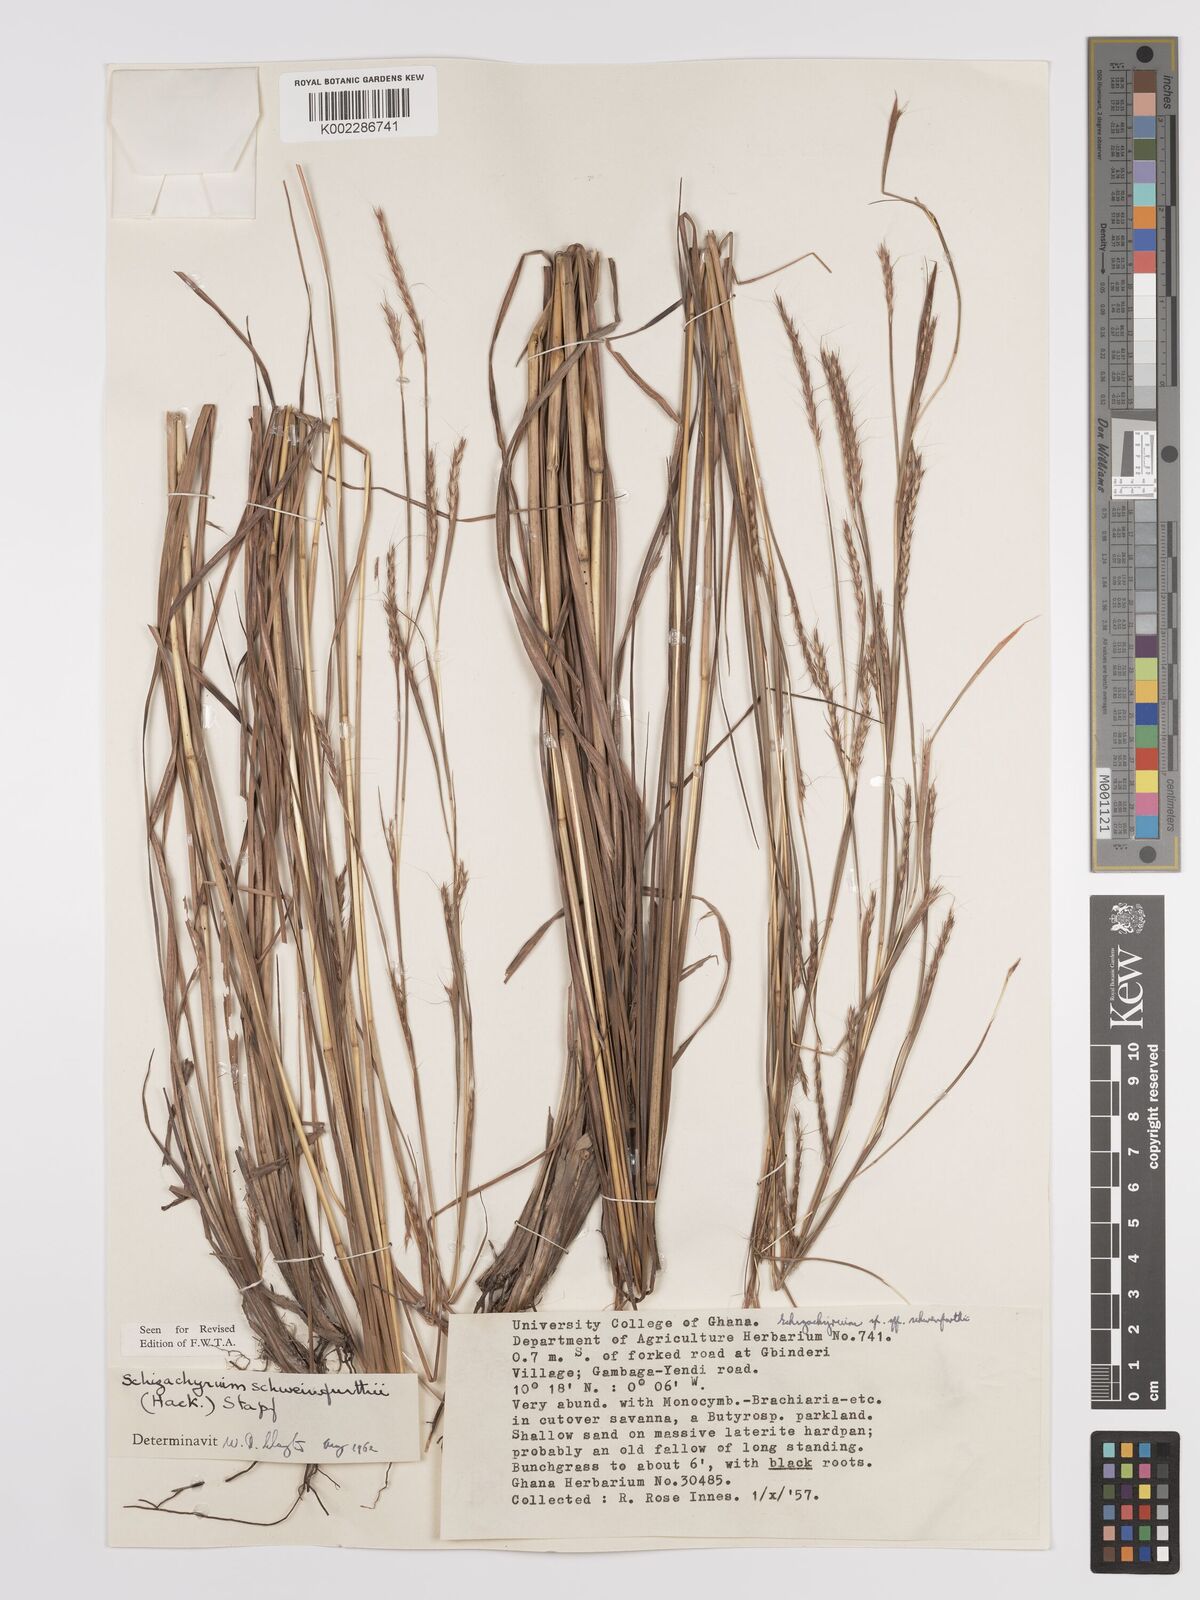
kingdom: Plantae
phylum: Tracheophyta
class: Liliopsida
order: Poales
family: Poaceae
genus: Andropogon
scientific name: Andropogon schweinfurthii
